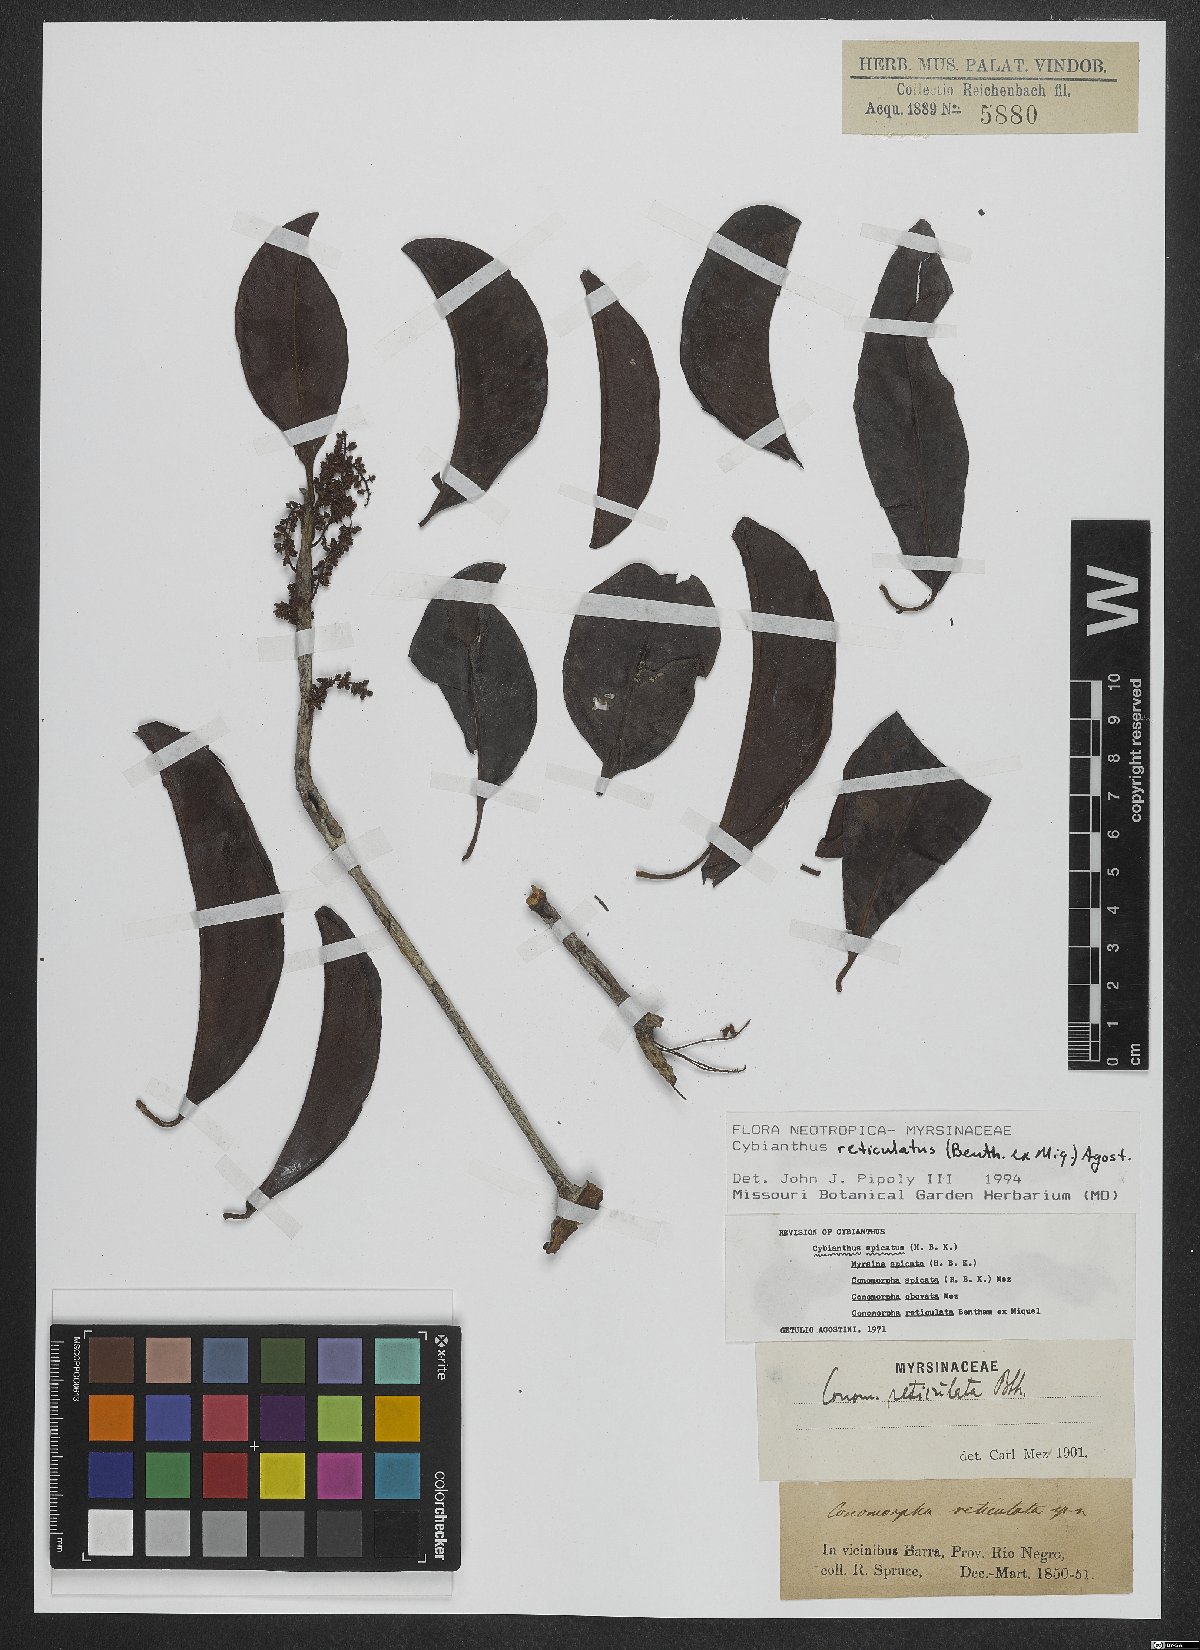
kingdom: Plantae
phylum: Tracheophyta
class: Magnoliopsida
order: Ericales
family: Primulaceae
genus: Cybianthus
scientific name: Cybianthus reticulatus
